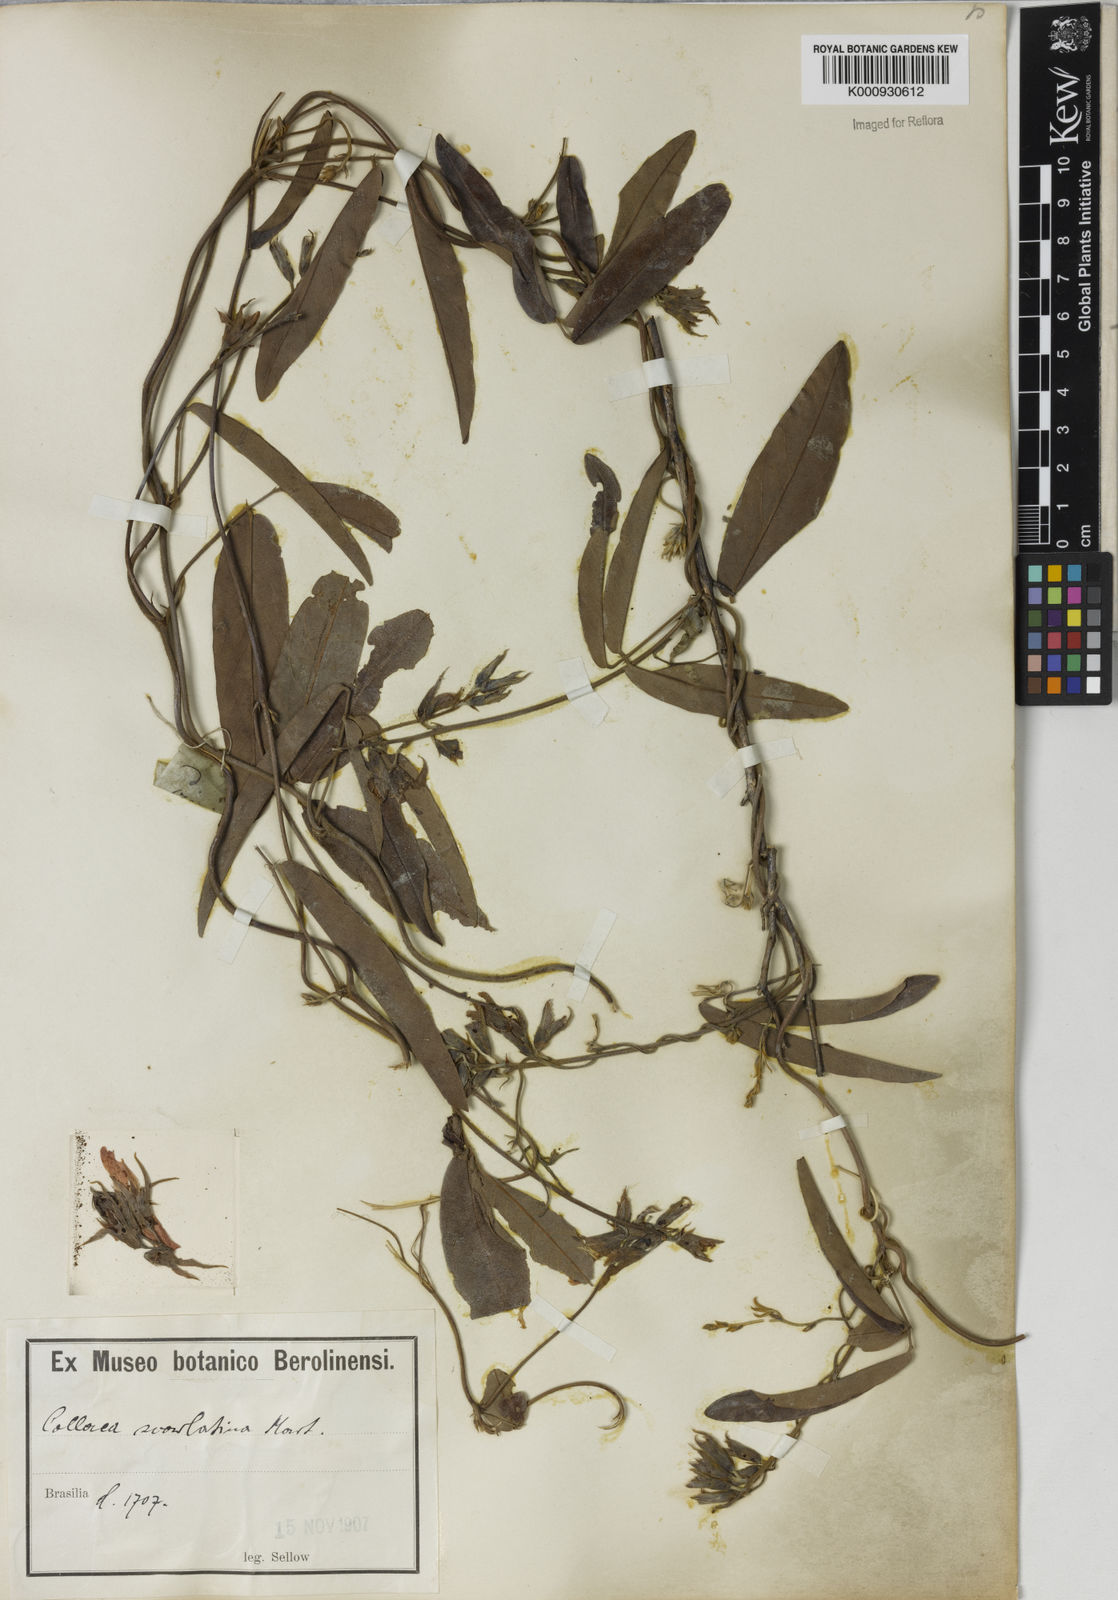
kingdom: Plantae
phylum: Tracheophyta
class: Magnoliopsida
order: Fabales
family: Fabaceae
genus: Betencourtia
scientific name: Betencourtia scarlatina
